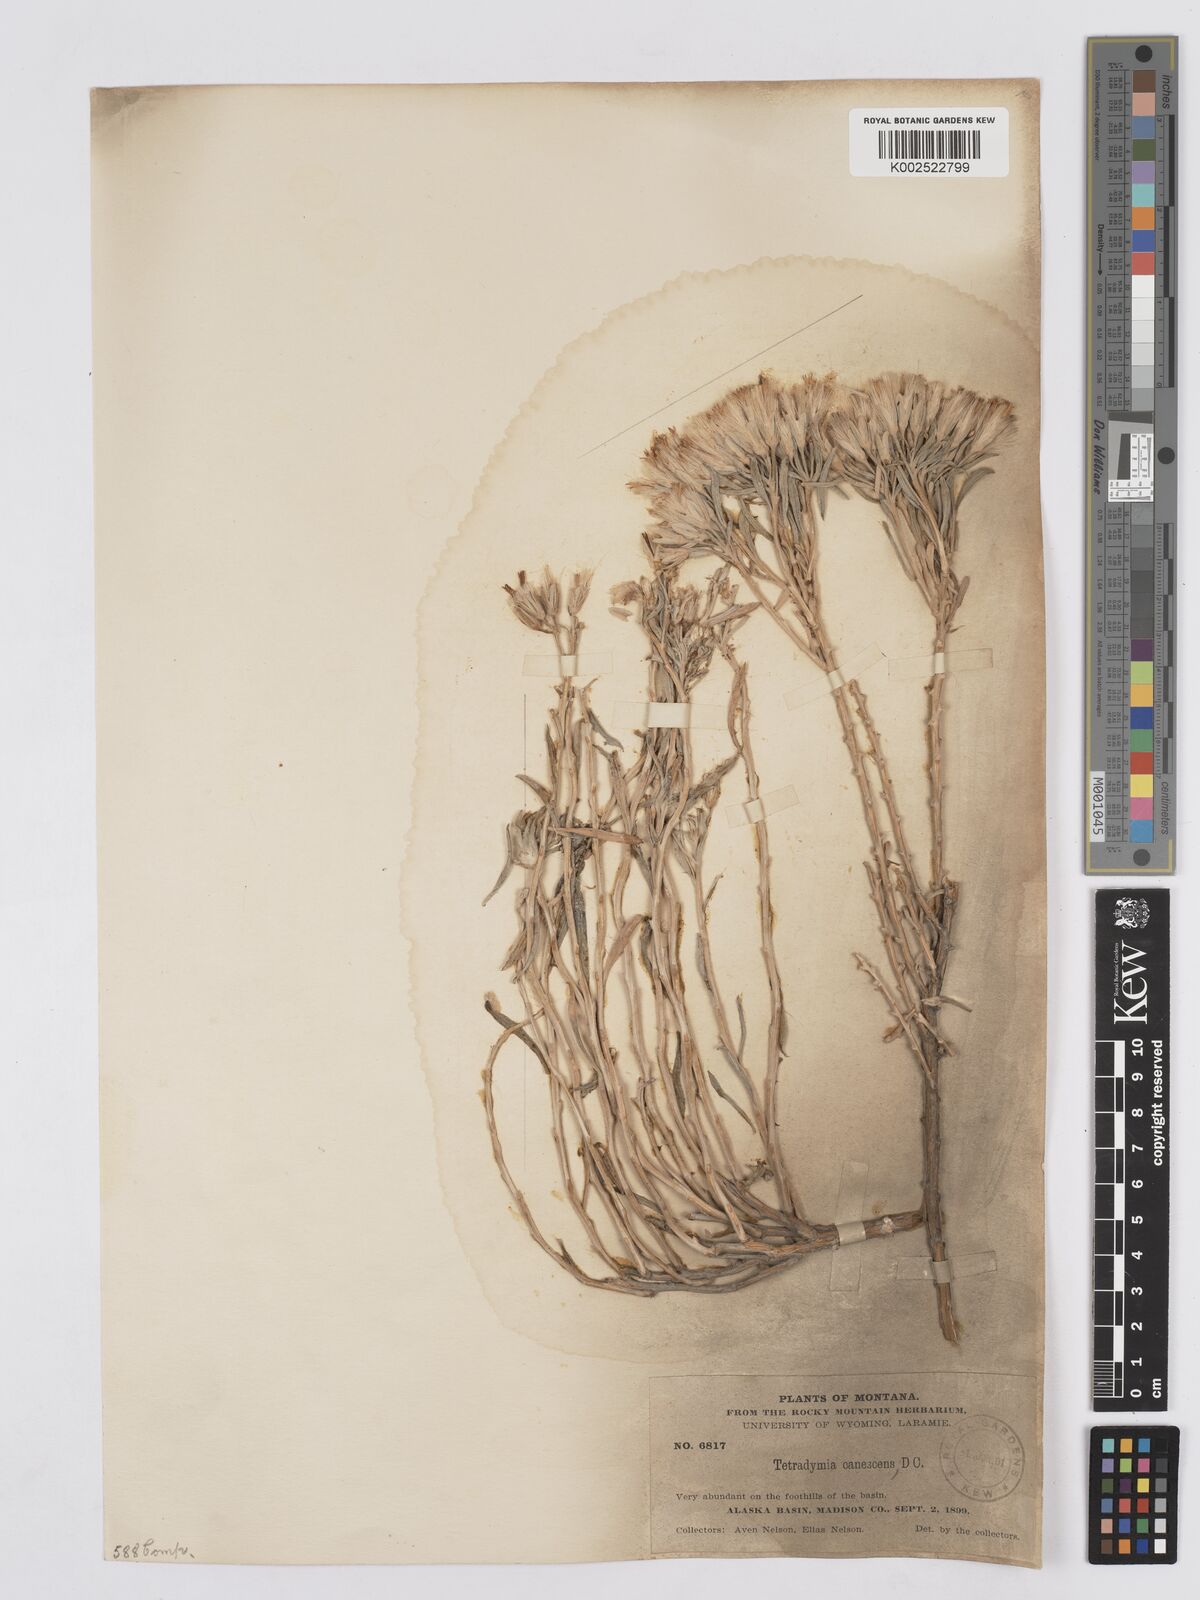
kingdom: Plantae
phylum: Tracheophyta
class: Magnoliopsida
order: Asterales
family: Asteraceae
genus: Tetradymia
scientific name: Tetradymia canescens
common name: Spineless horsebrush
